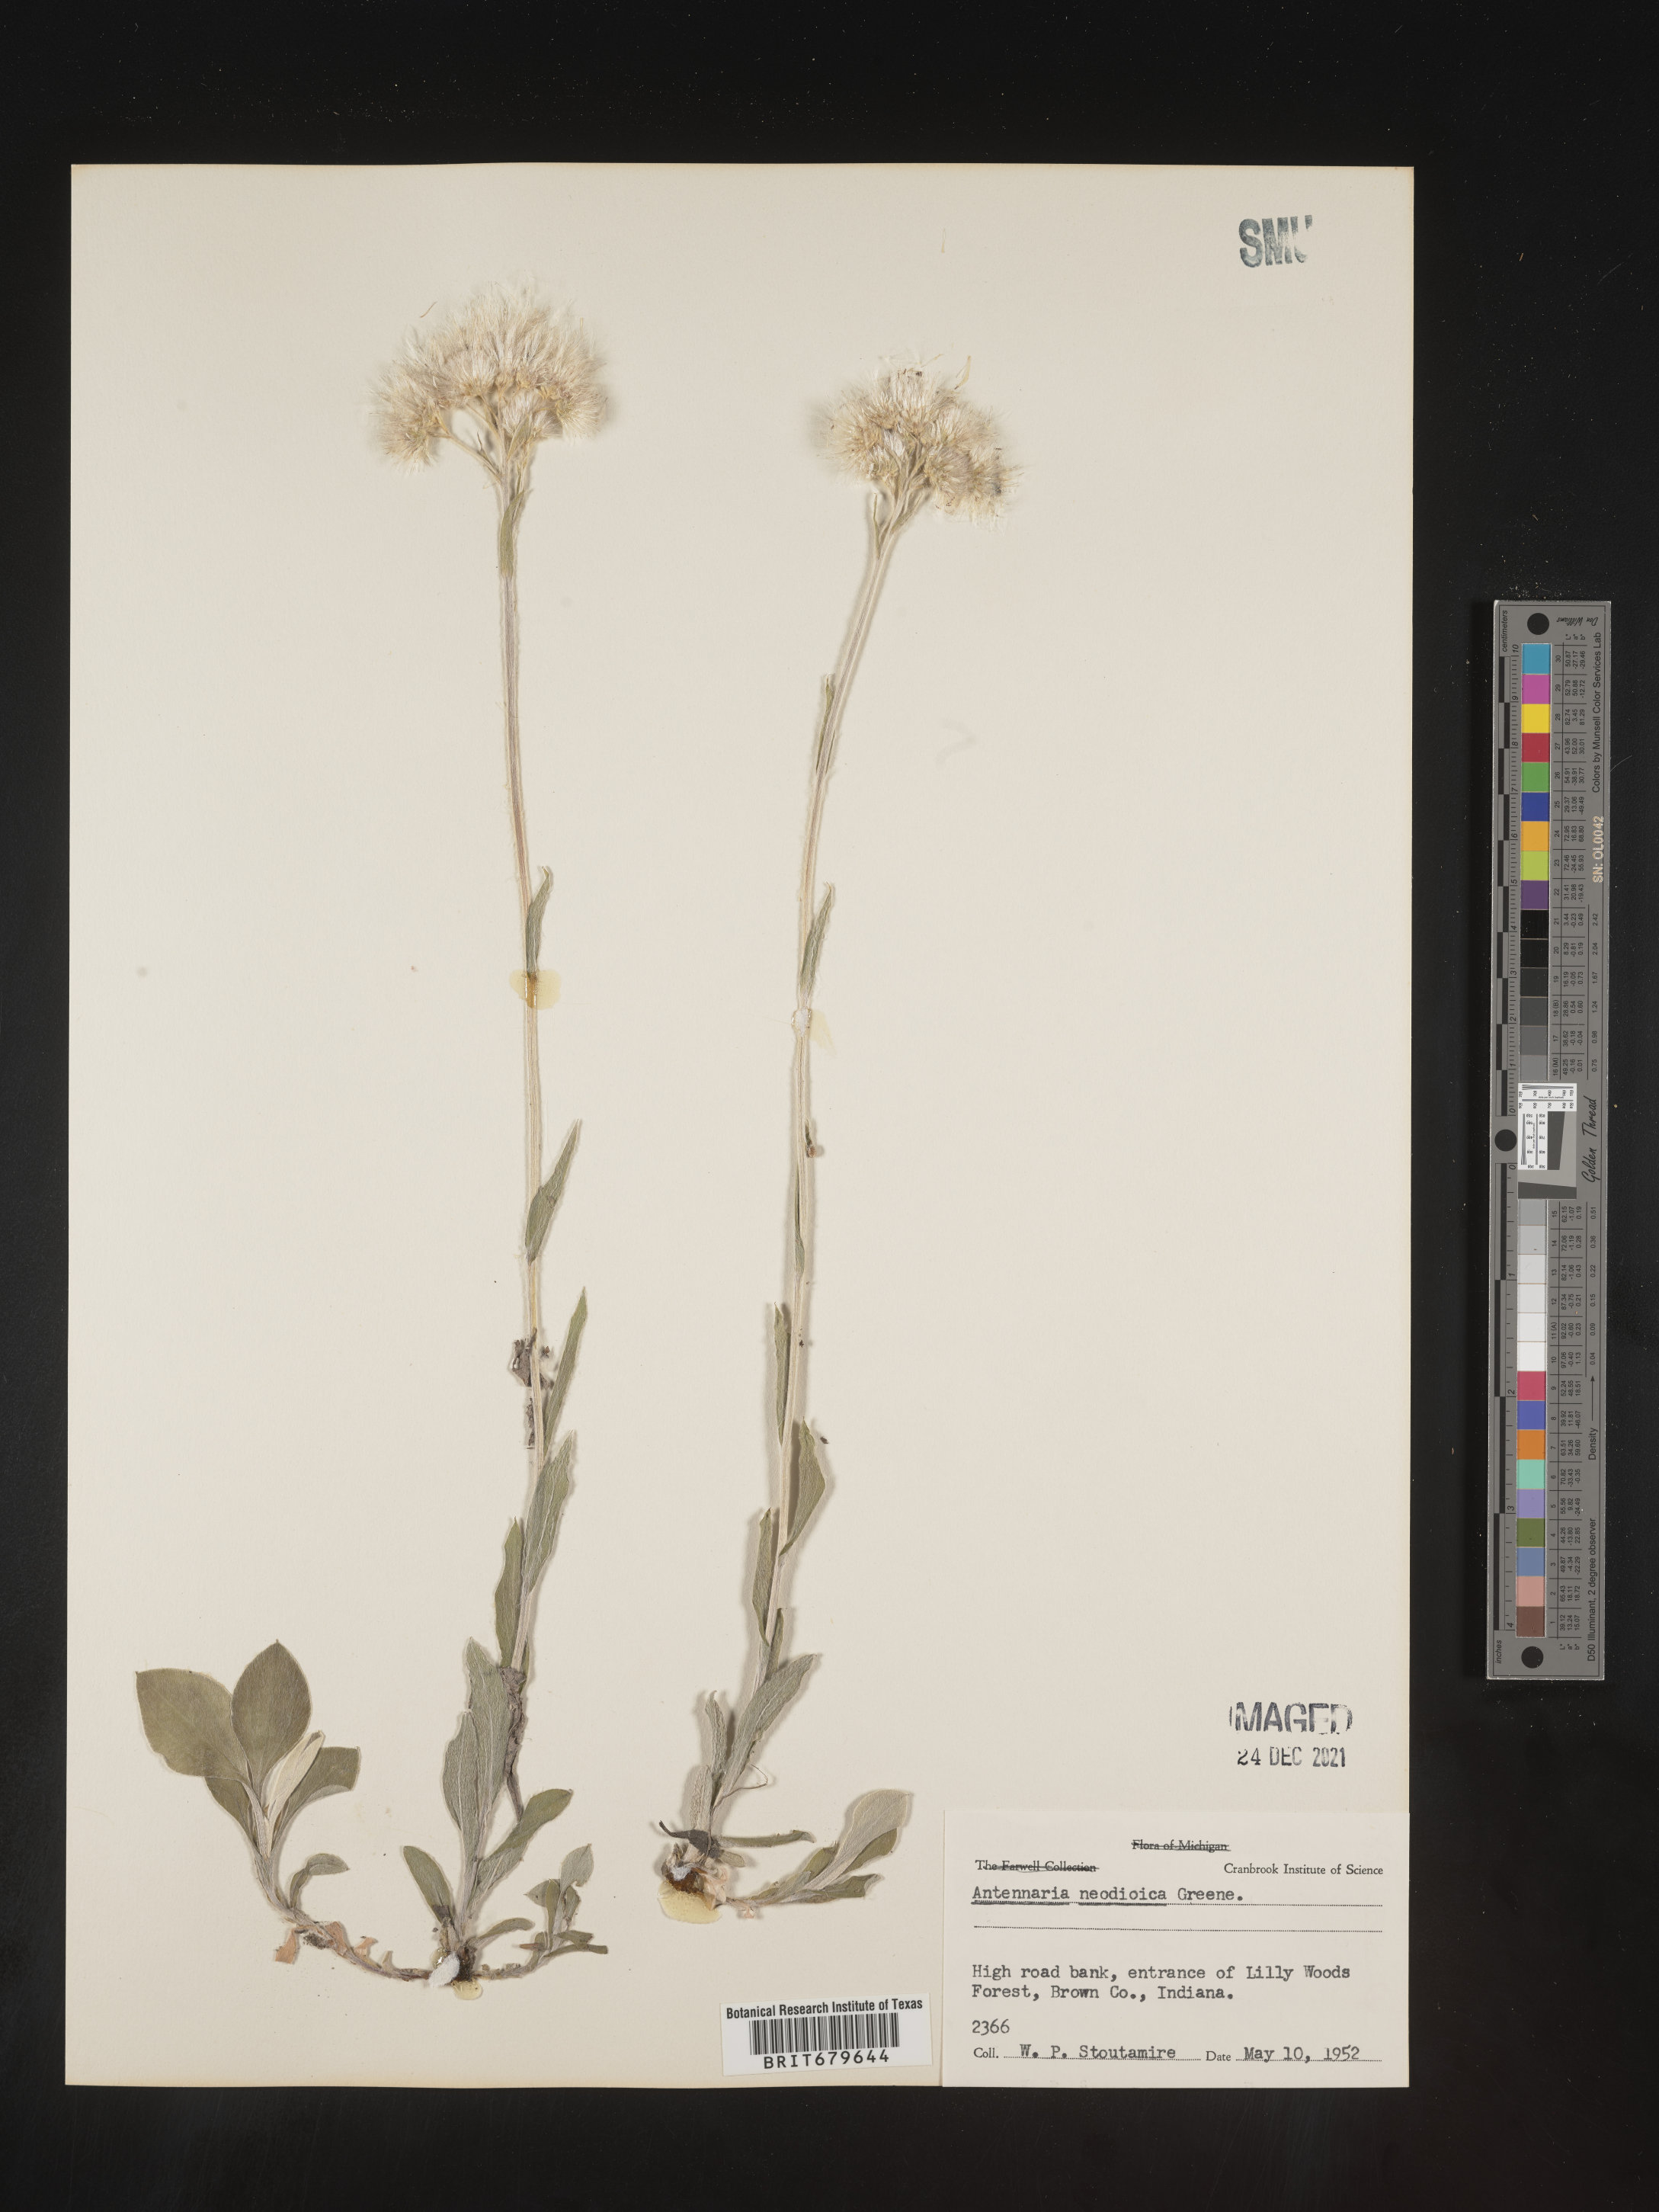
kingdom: Plantae
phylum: Tracheophyta
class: Magnoliopsida
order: Asterales
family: Asteraceae
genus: Antennaria
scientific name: Antennaria howellii
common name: Howell's pussytoes
